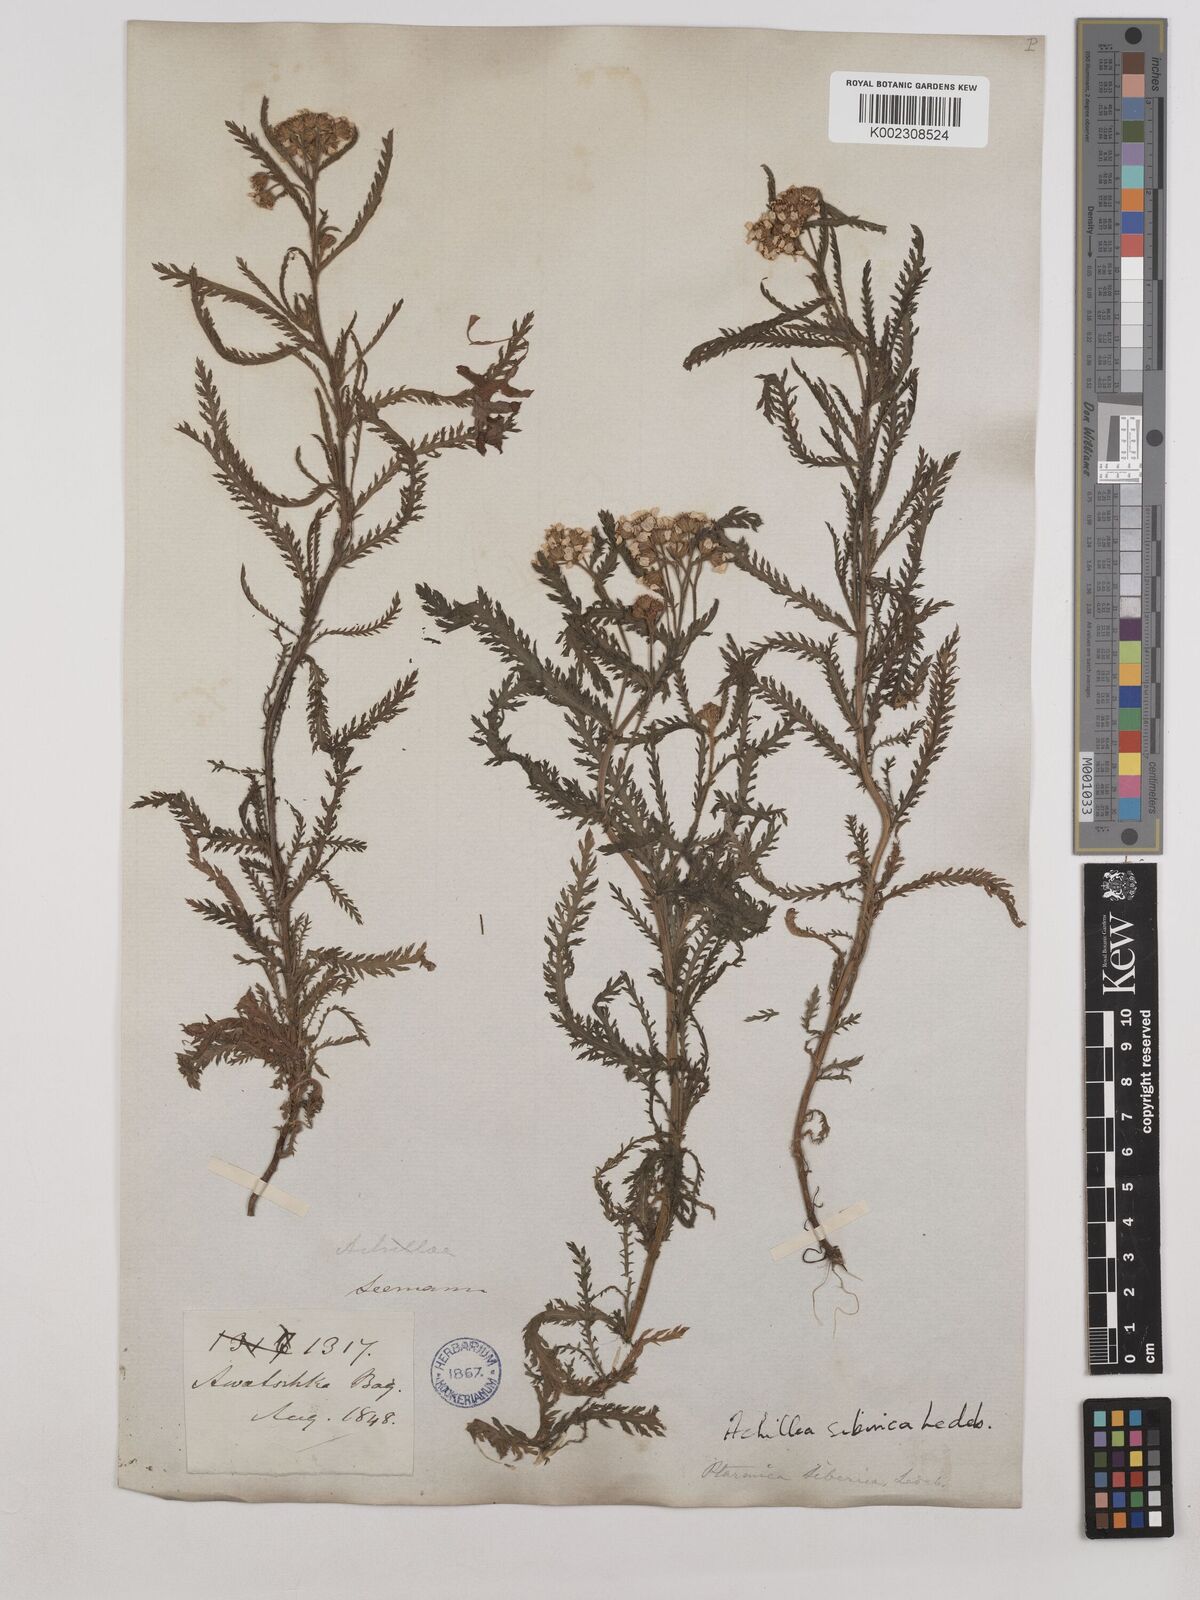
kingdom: Plantae
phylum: Tracheophyta
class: Magnoliopsida
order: Asterales
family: Asteraceae
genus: Achillea
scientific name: Achillea alpina
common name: Siberian yarrow
